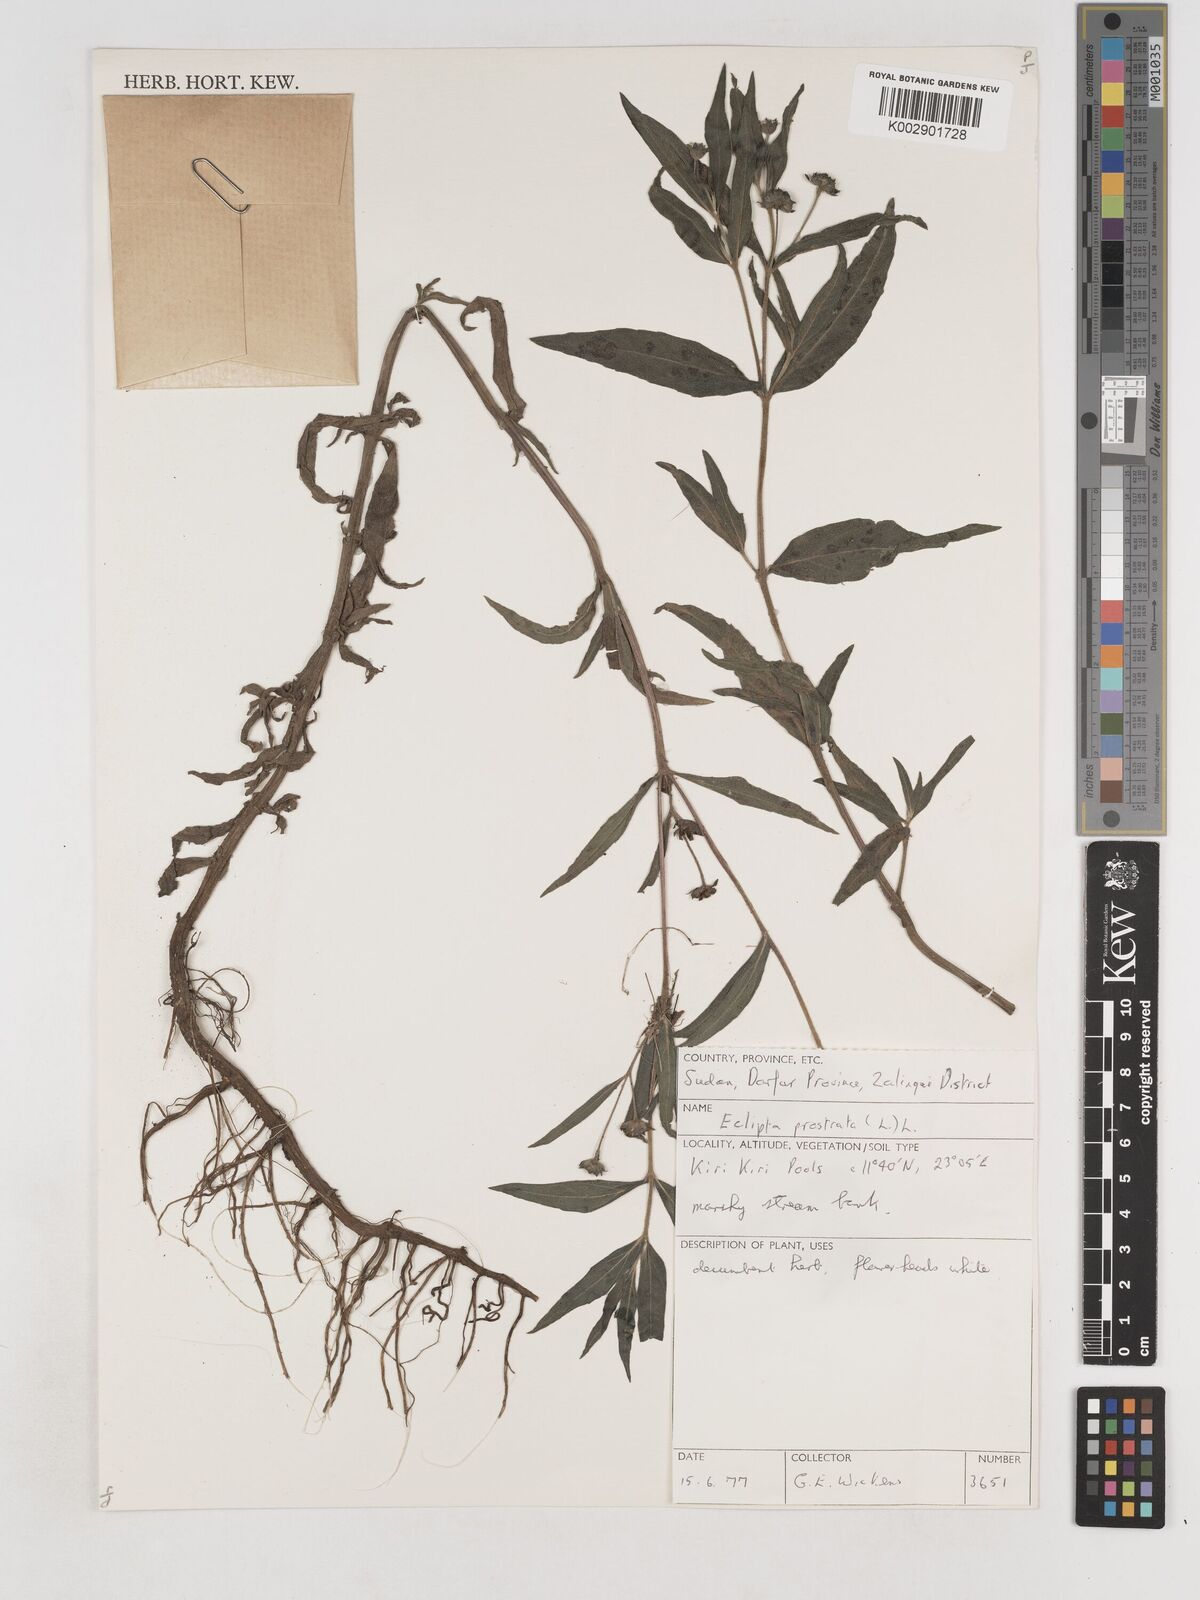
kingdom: Plantae
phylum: Tracheophyta
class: Magnoliopsida
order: Asterales
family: Asteraceae
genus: Eclipta
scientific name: Eclipta prostrata
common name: False daisy
